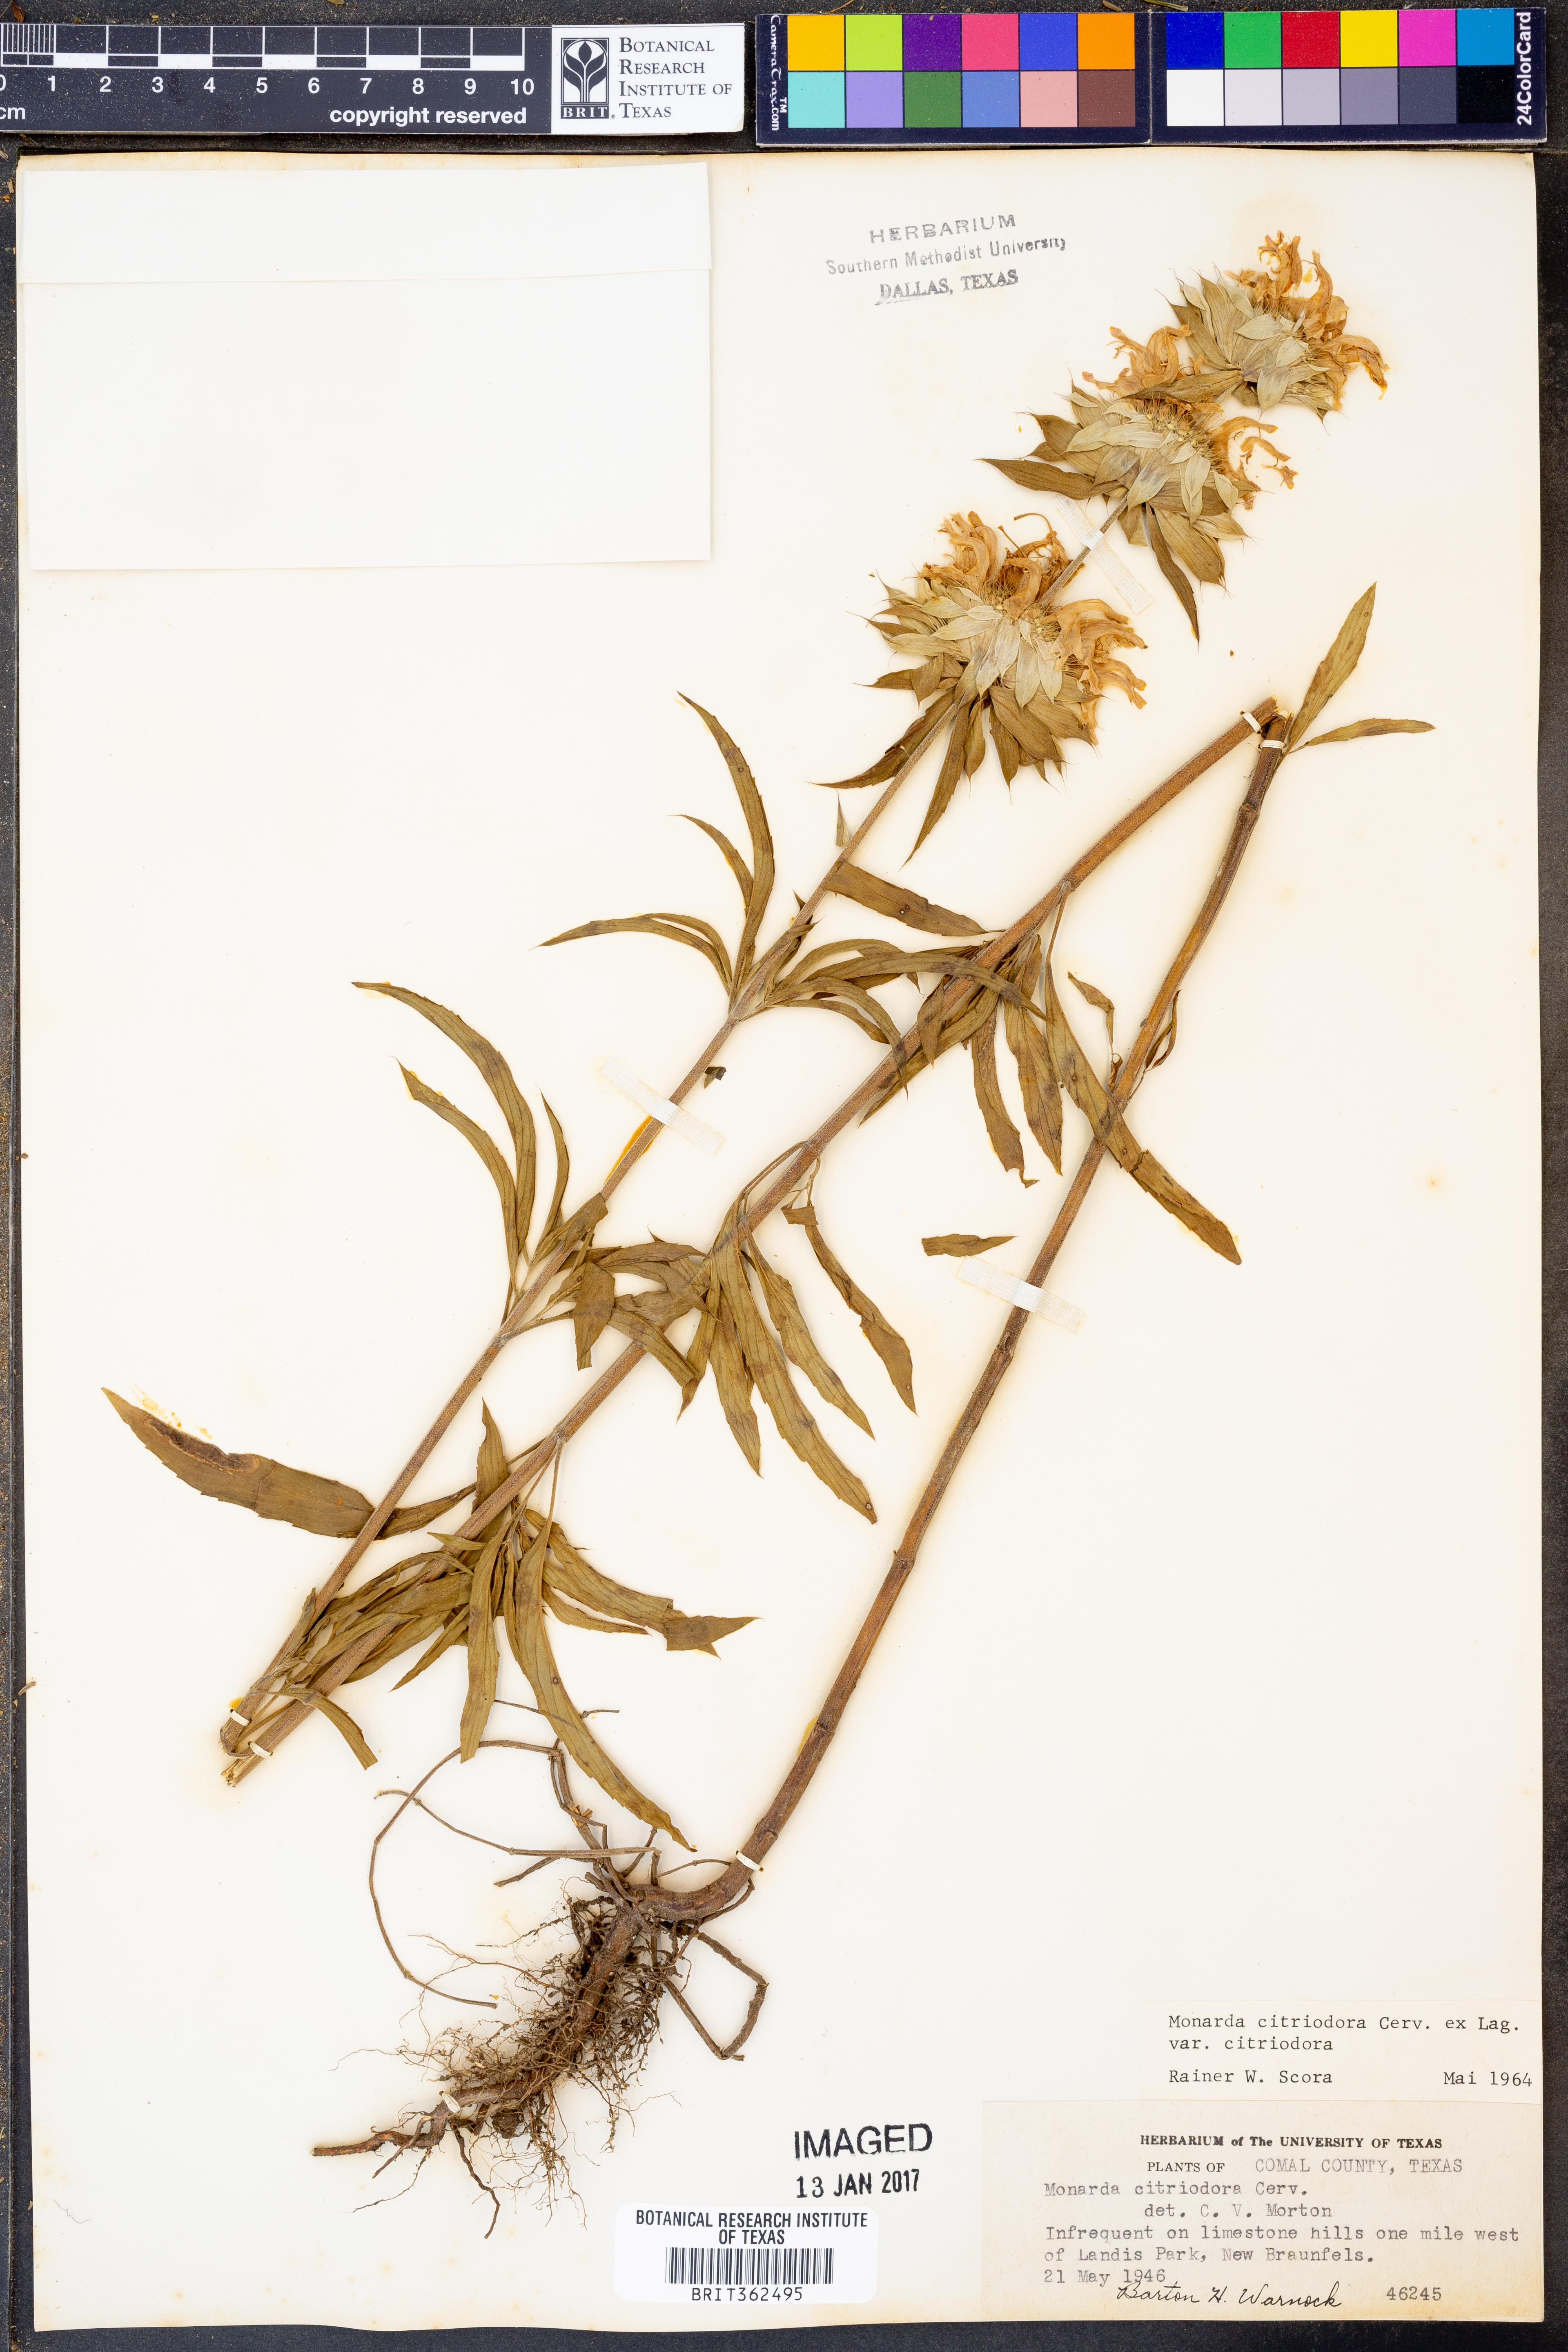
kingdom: Plantae
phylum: Tracheophyta
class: Magnoliopsida
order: Lamiales
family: Lamiaceae
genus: Monarda
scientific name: Monarda citriodora
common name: Lemon beebalm
